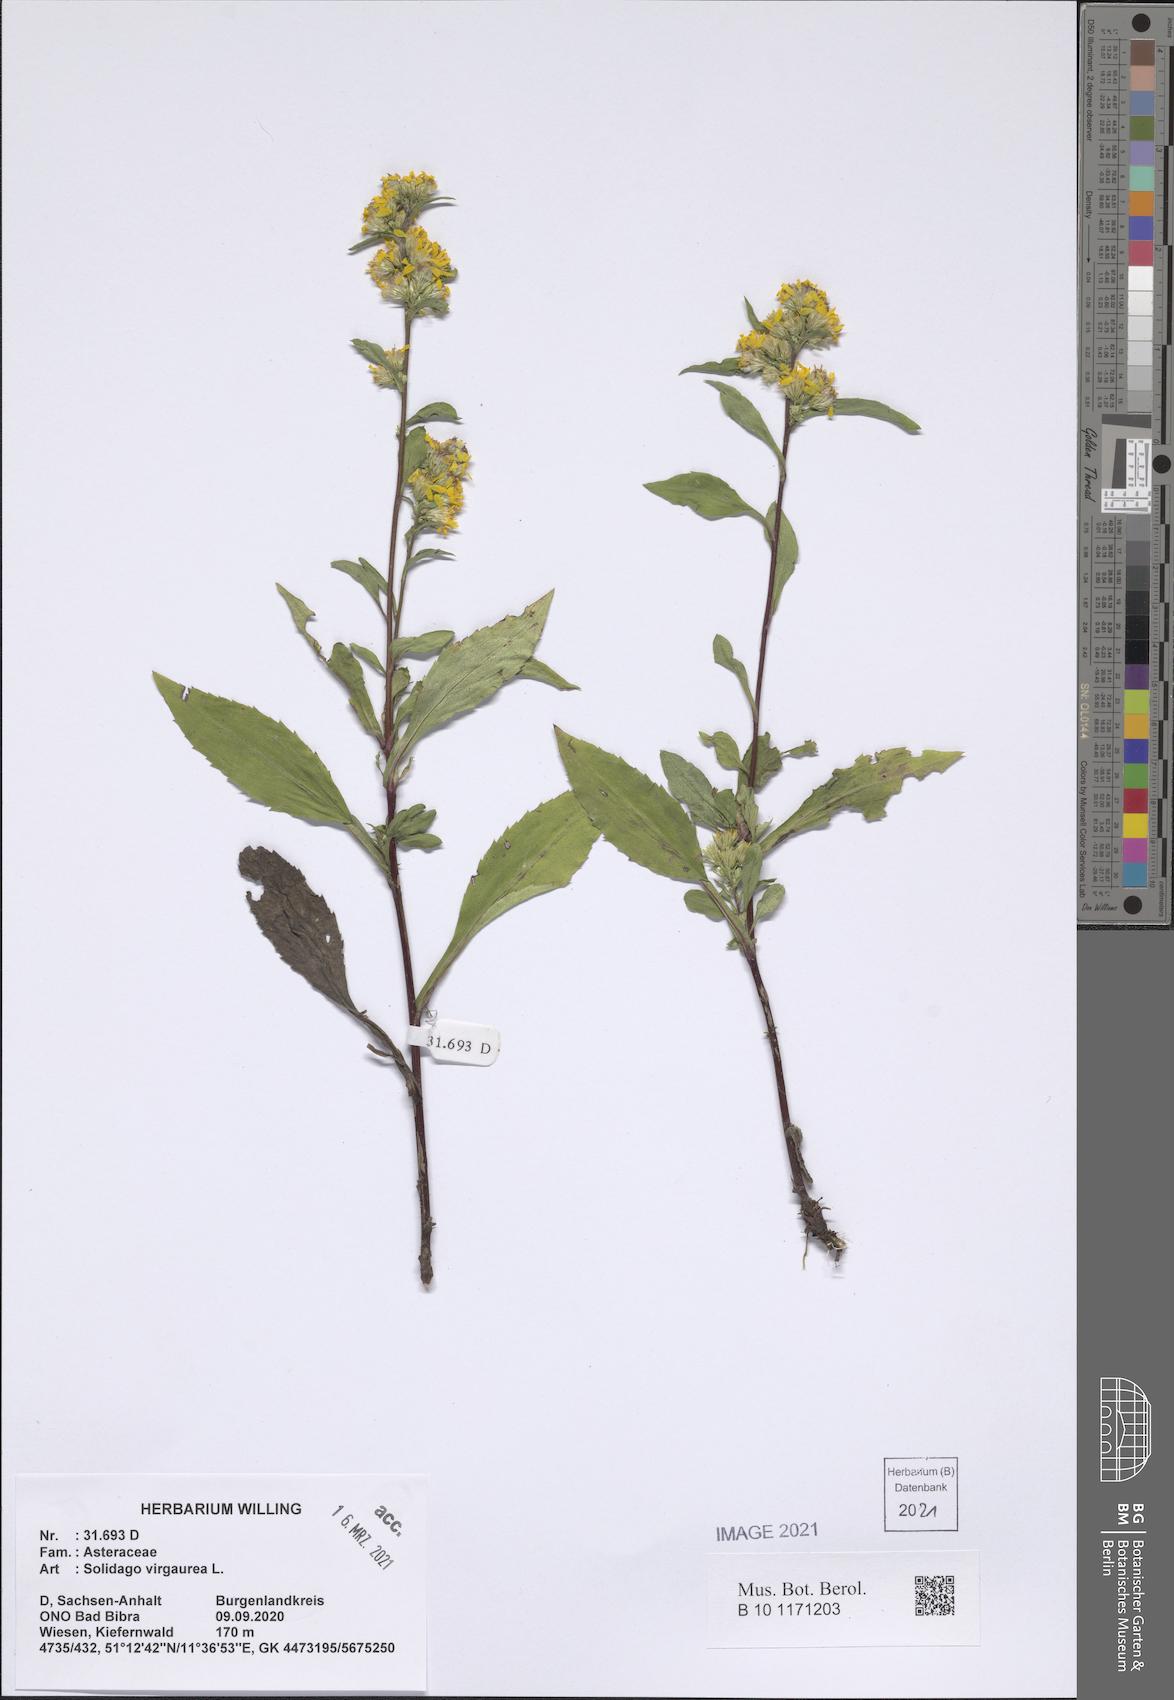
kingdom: Plantae
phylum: Tracheophyta
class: Magnoliopsida
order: Asterales
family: Asteraceae
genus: Solidago
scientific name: Solidago virgaurea
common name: Goldenrod
